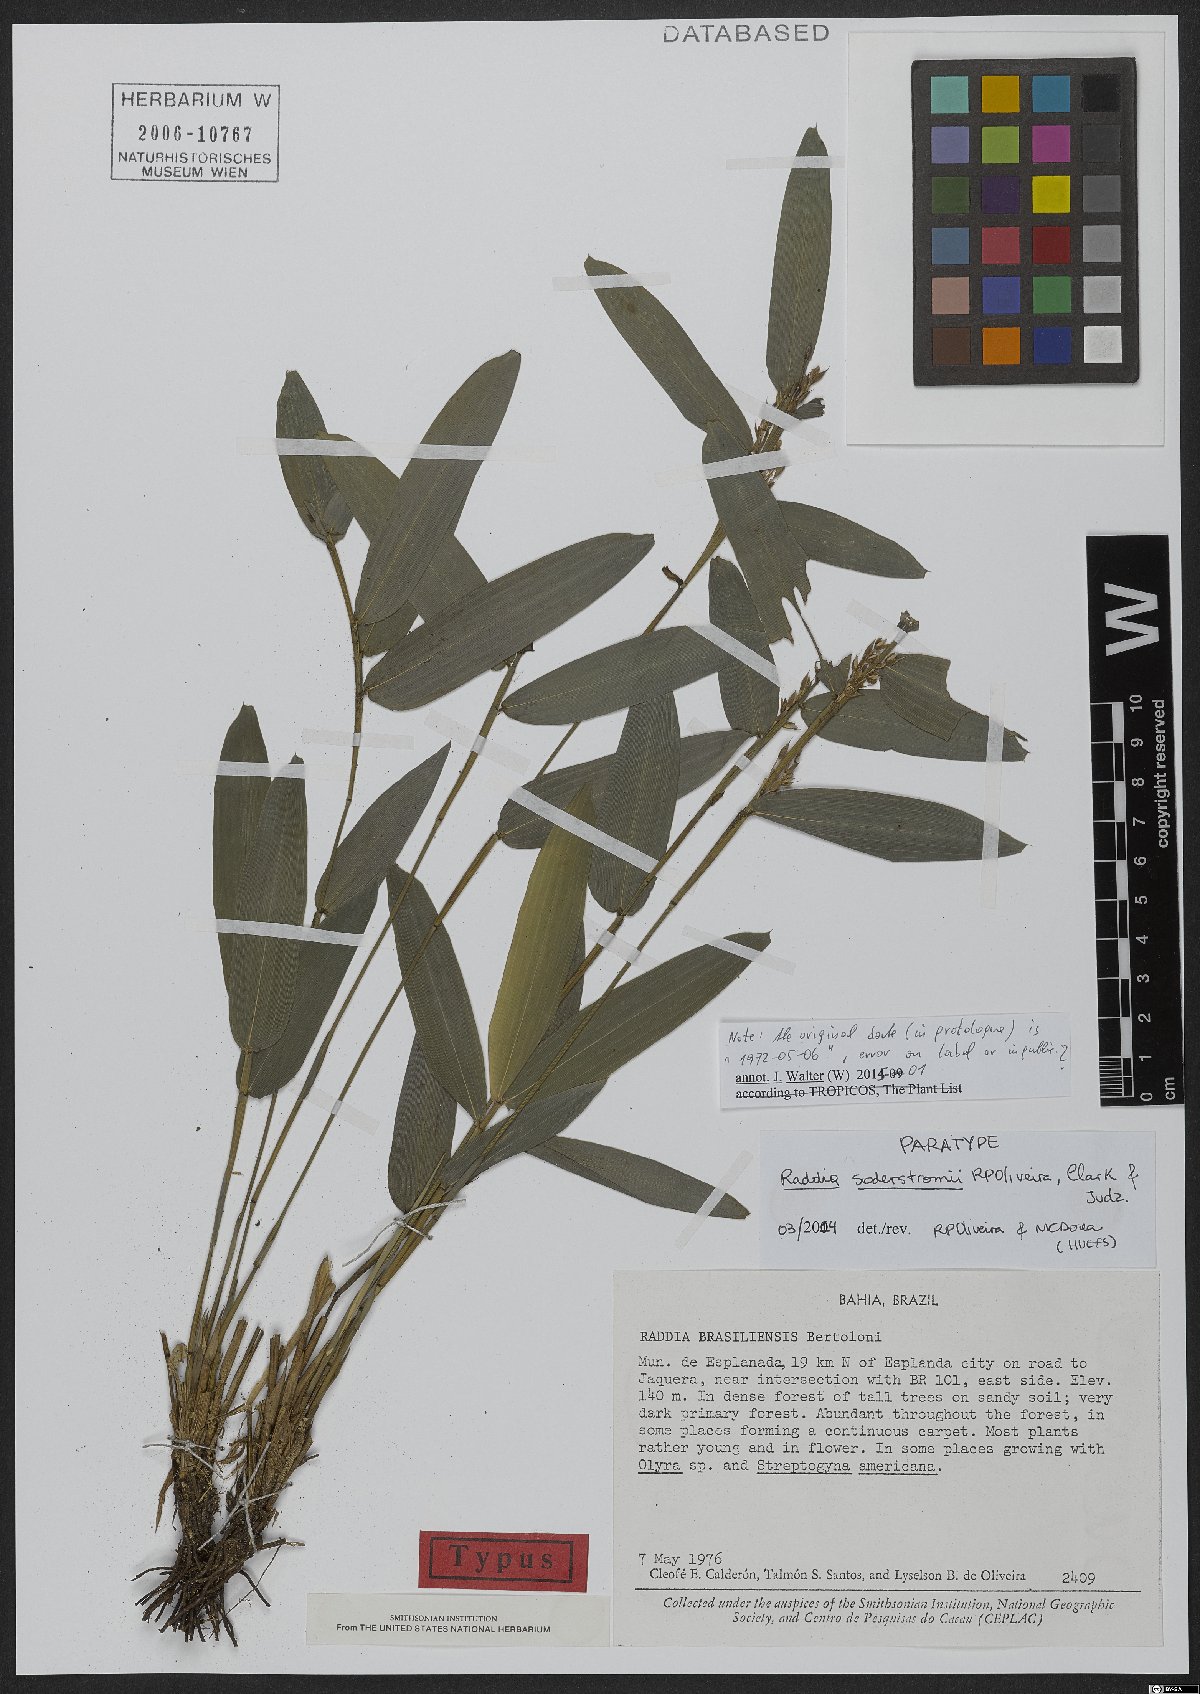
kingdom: Plantae
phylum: Tracheophyta
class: Liliopsida
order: Poales
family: Poaceae
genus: Raddia
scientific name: Raddia soderstromii
